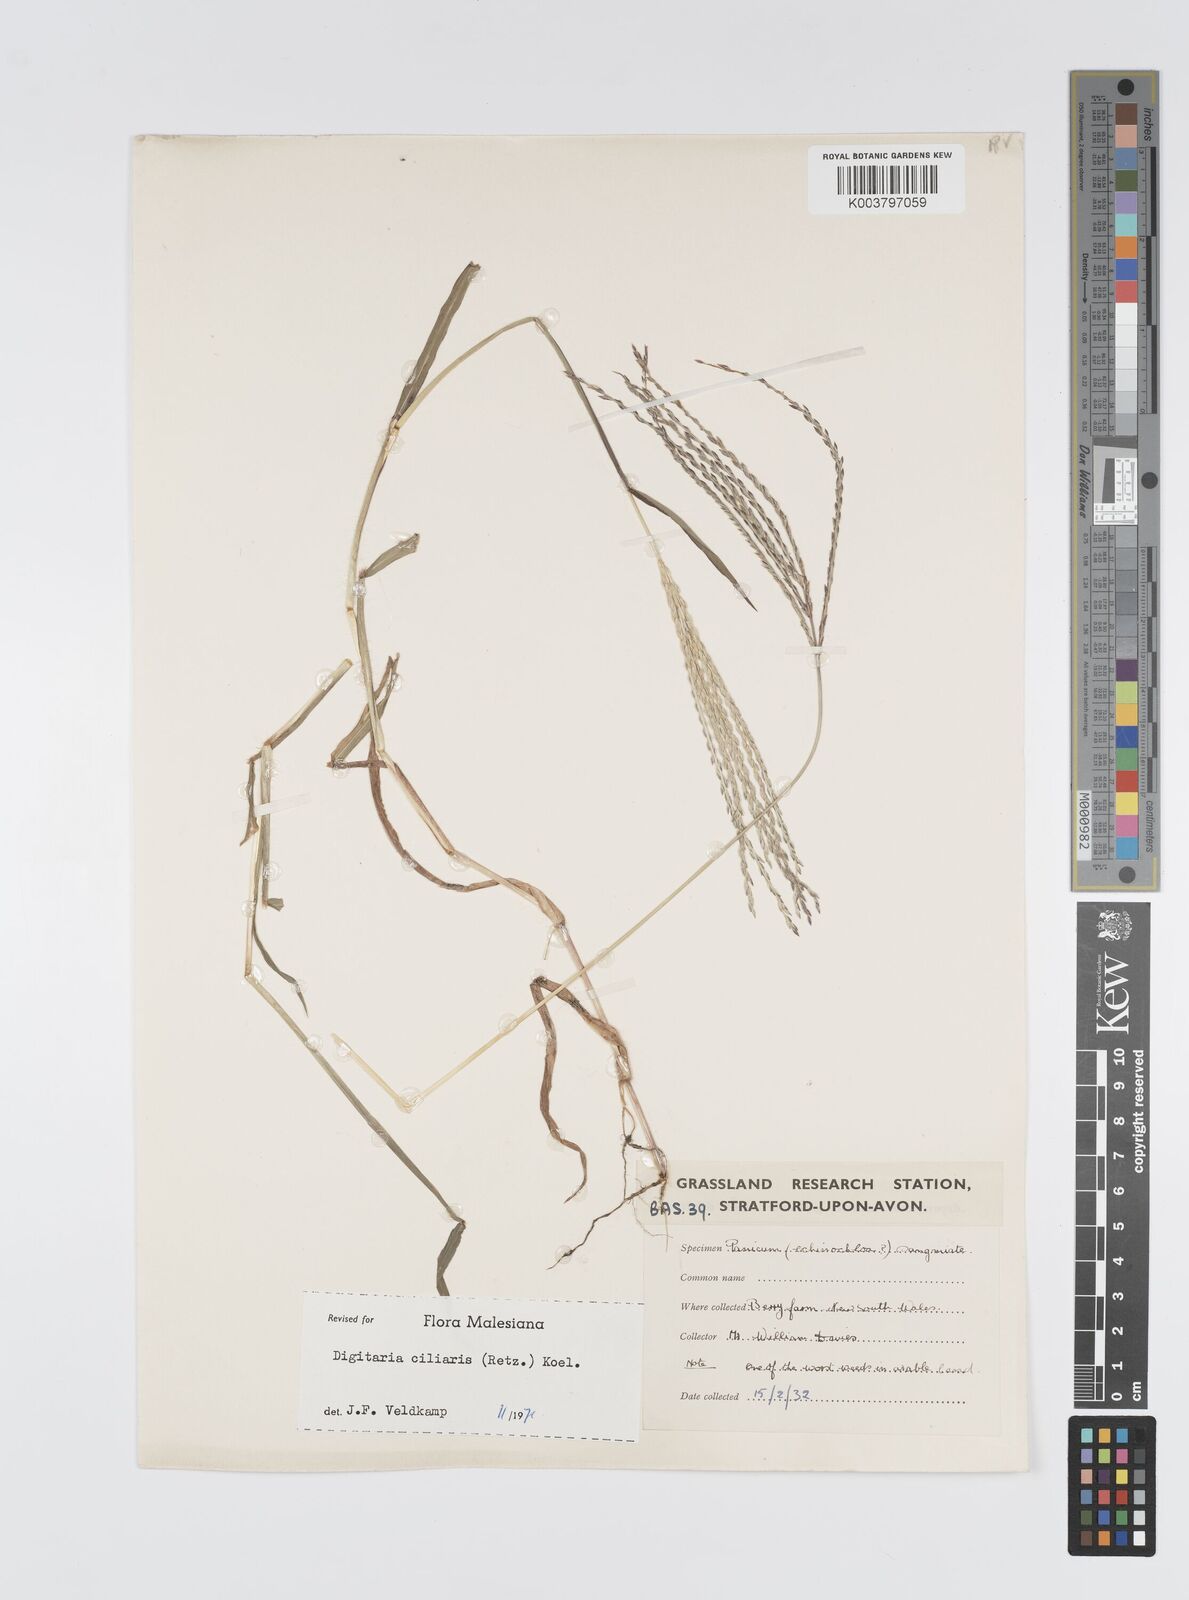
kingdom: Plantae
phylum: Tracheophyta
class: Liliopsida
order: Poales
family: Poaceae
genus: Digitaria
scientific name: Digitaria ciliaris
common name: Tropical finger-grass
